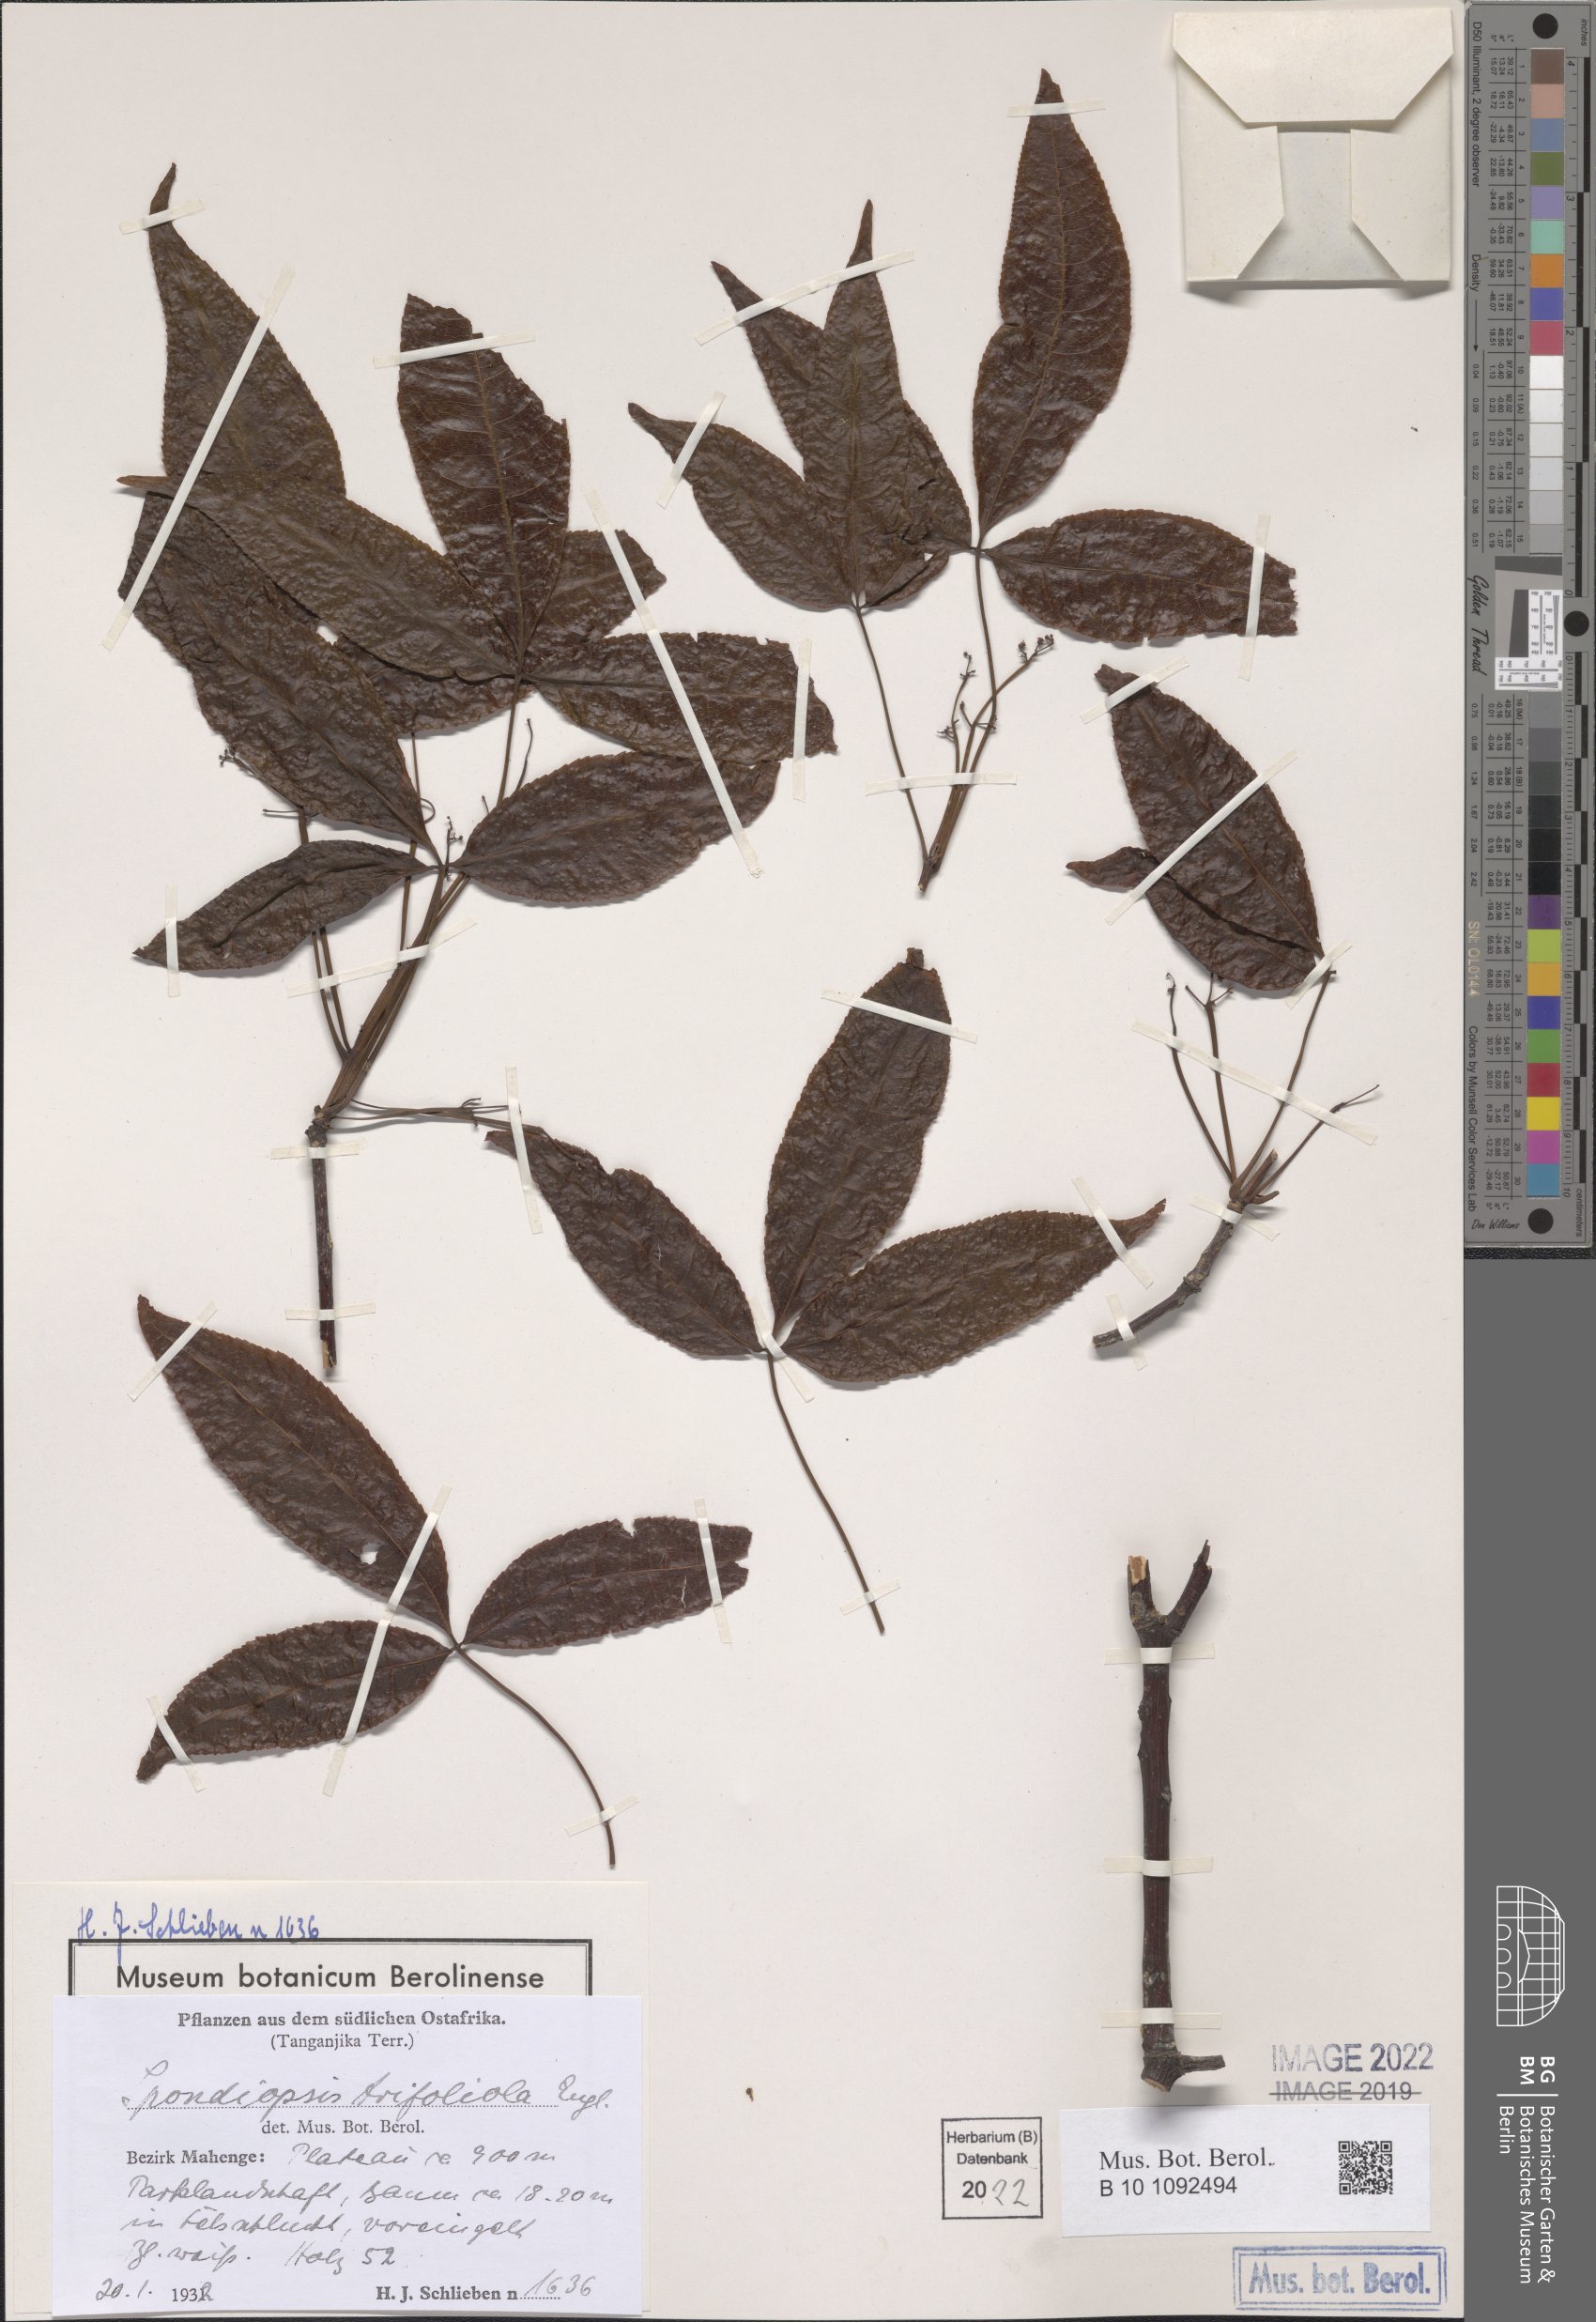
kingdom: Plantae
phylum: Tracheophyta
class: Magnoliopsida
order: Sapindales
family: Burseraceae
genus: Commiphora
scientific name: Commiphora eminii
